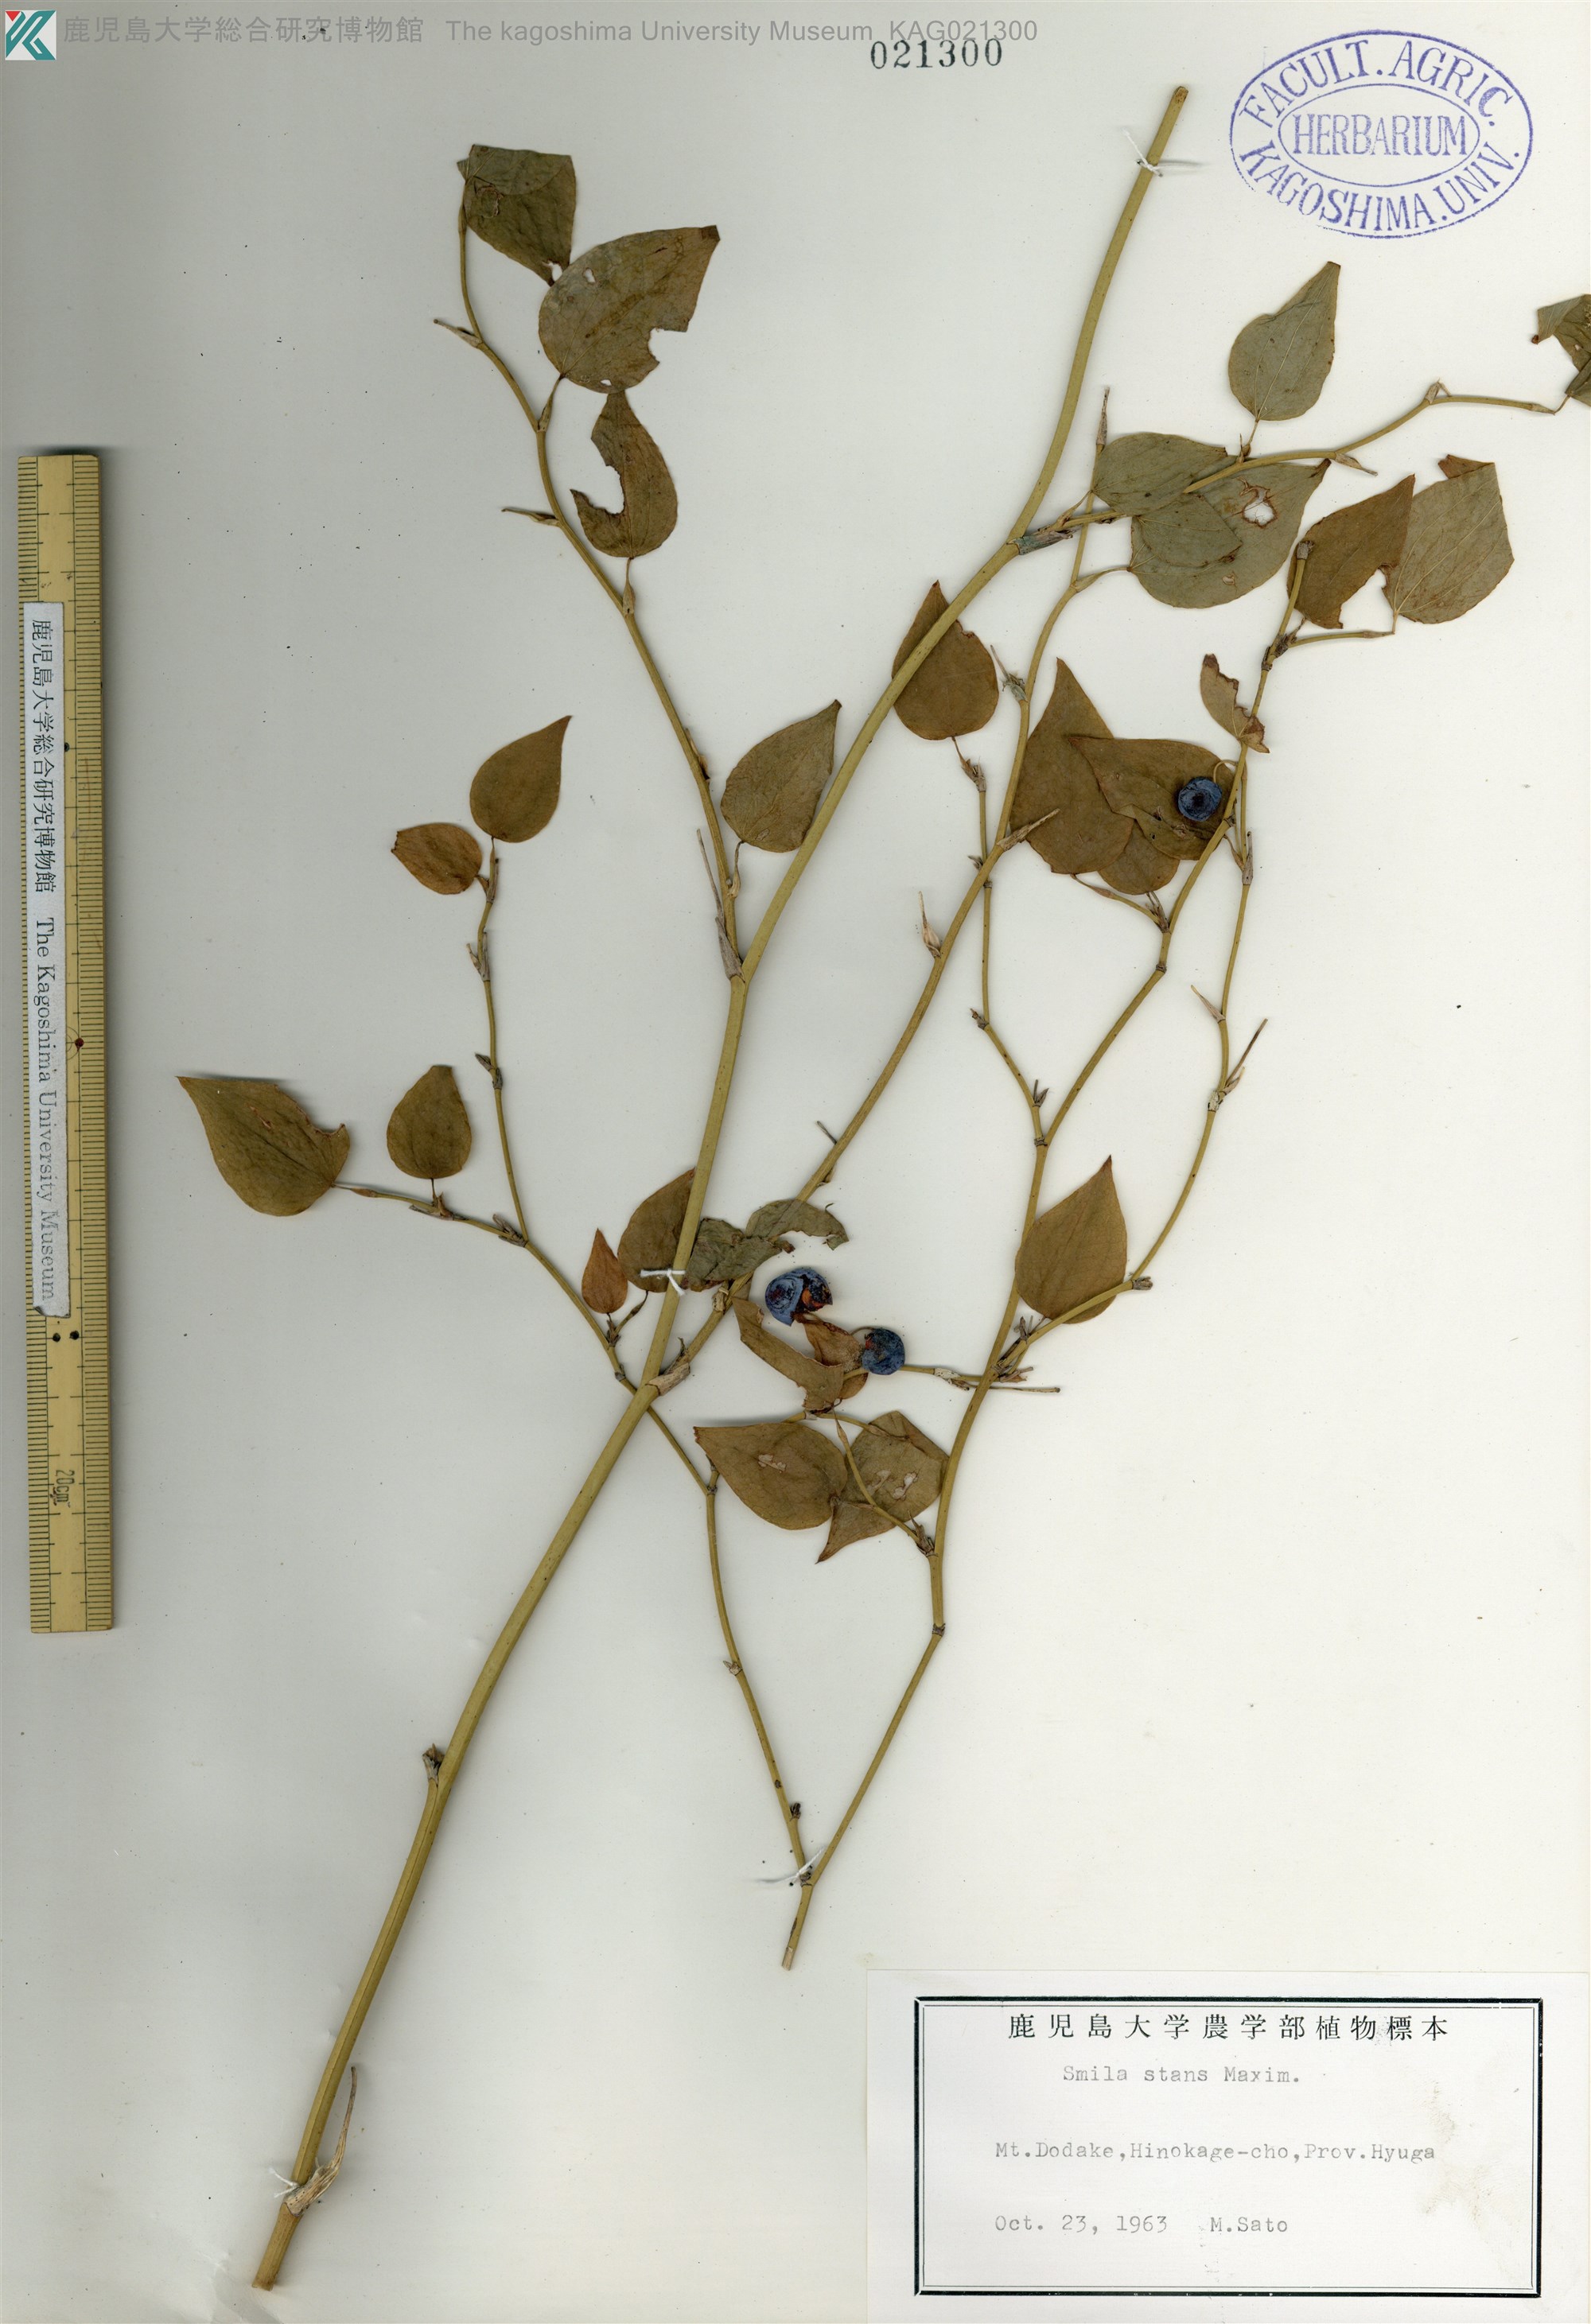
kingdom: Plantae
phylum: Tracheophyta
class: Liliopsida
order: Liliales
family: Smilacaceae
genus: Smilax
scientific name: Smilax stans
